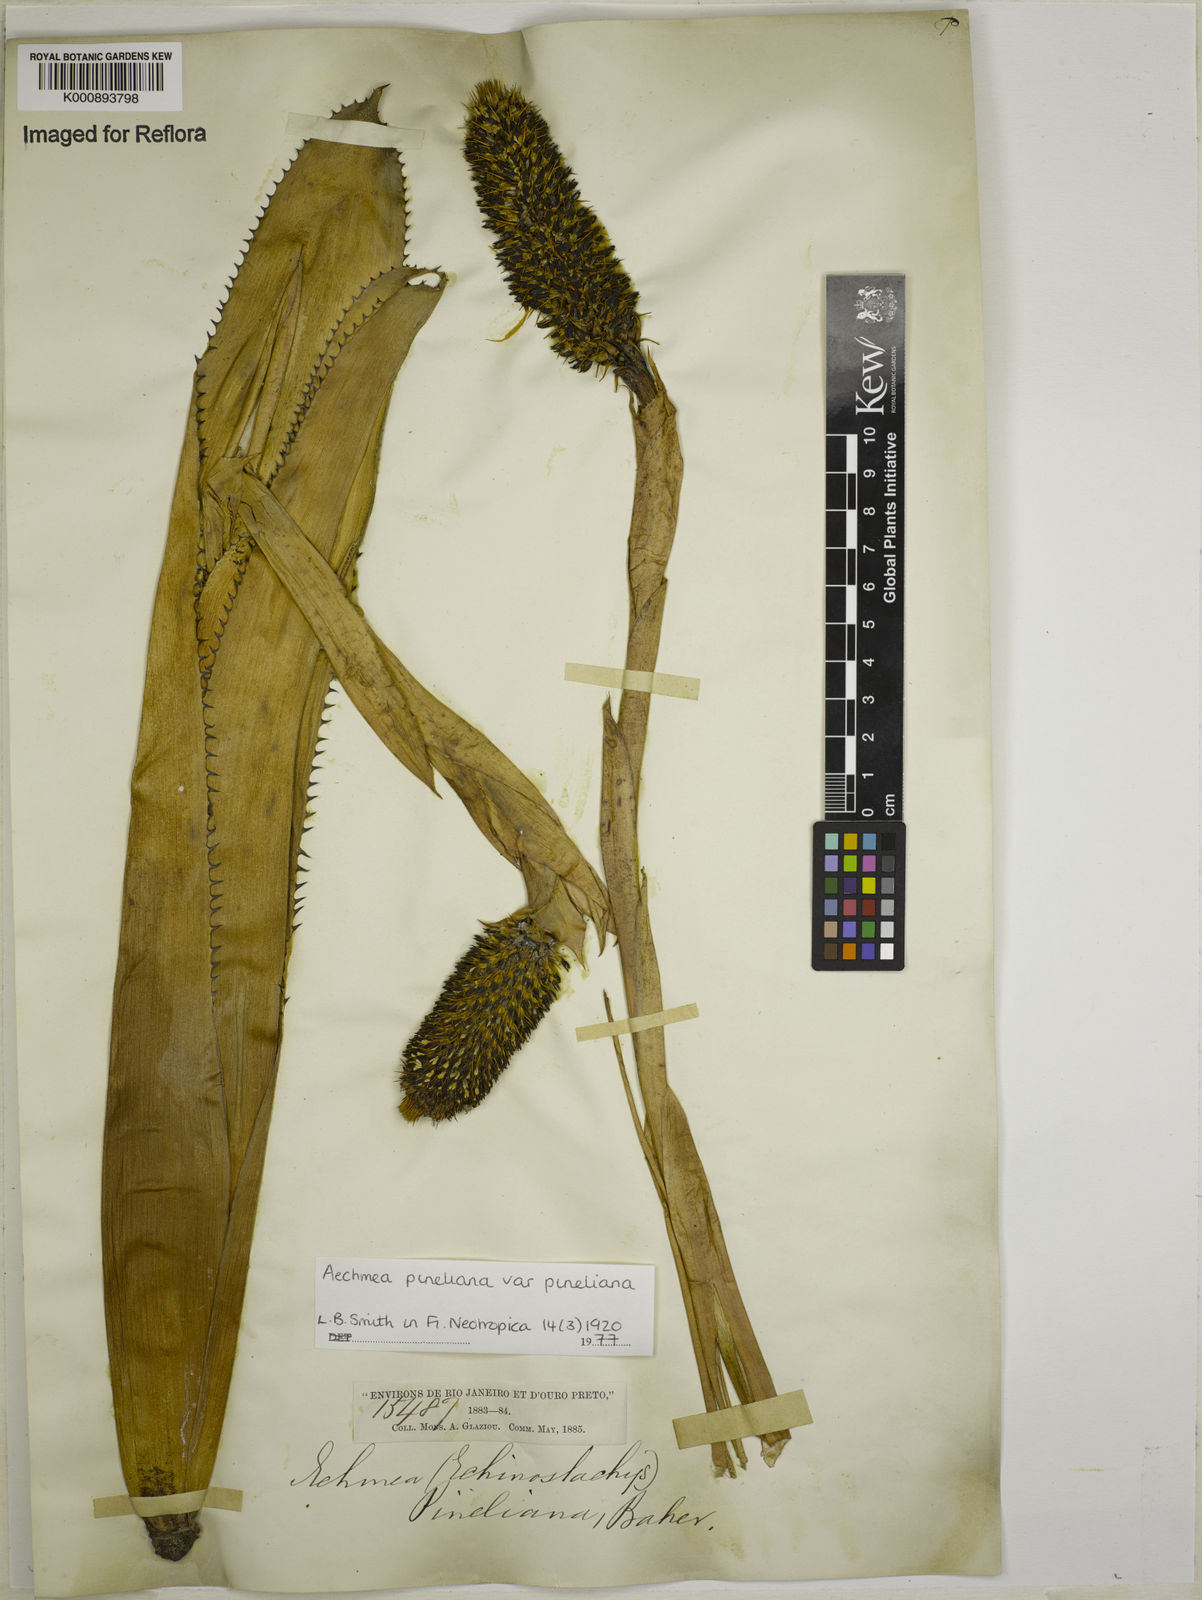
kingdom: Plantae
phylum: Tracheophyta
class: Liliopsida
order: Poales
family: Bromeliaceae
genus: Aechmea
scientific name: Aechmea pineliana
